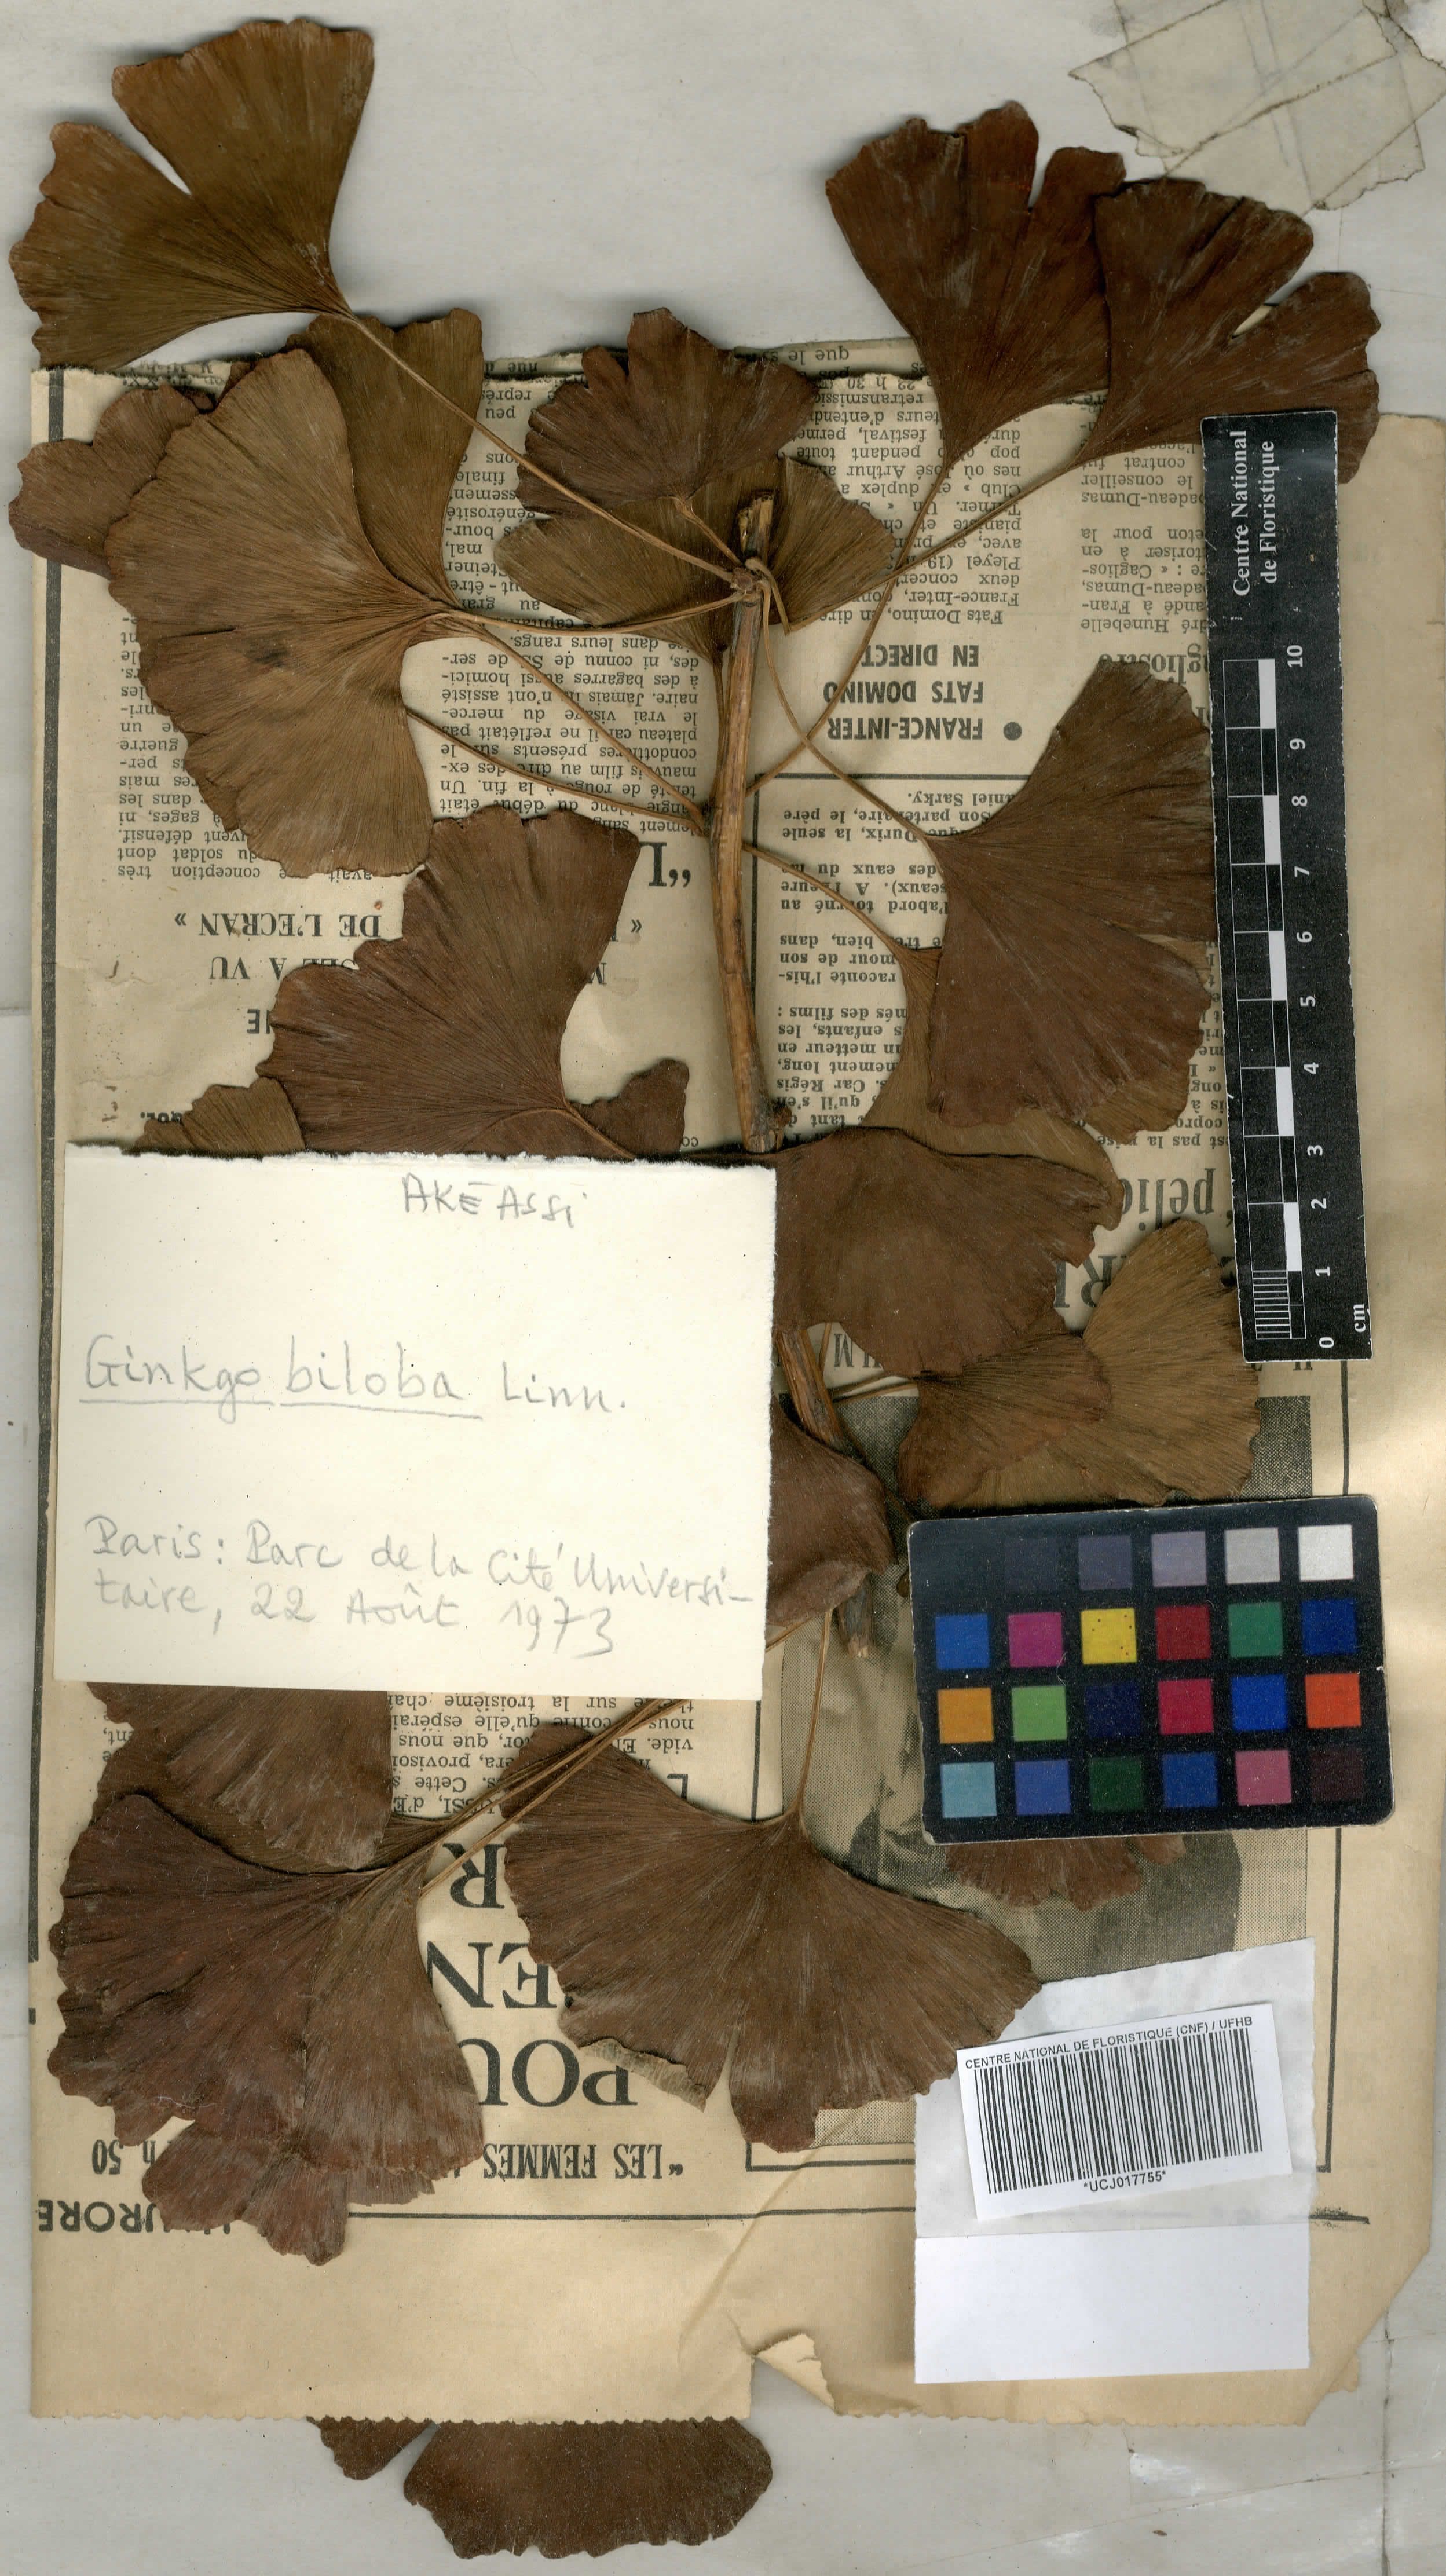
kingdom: Plantae
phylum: Tracheophyta
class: Ginkgoopsida
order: Ginkgoales
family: Ginkgoaceae
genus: Ginkgo
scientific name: Ginkgo biloba
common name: Ginkgo
